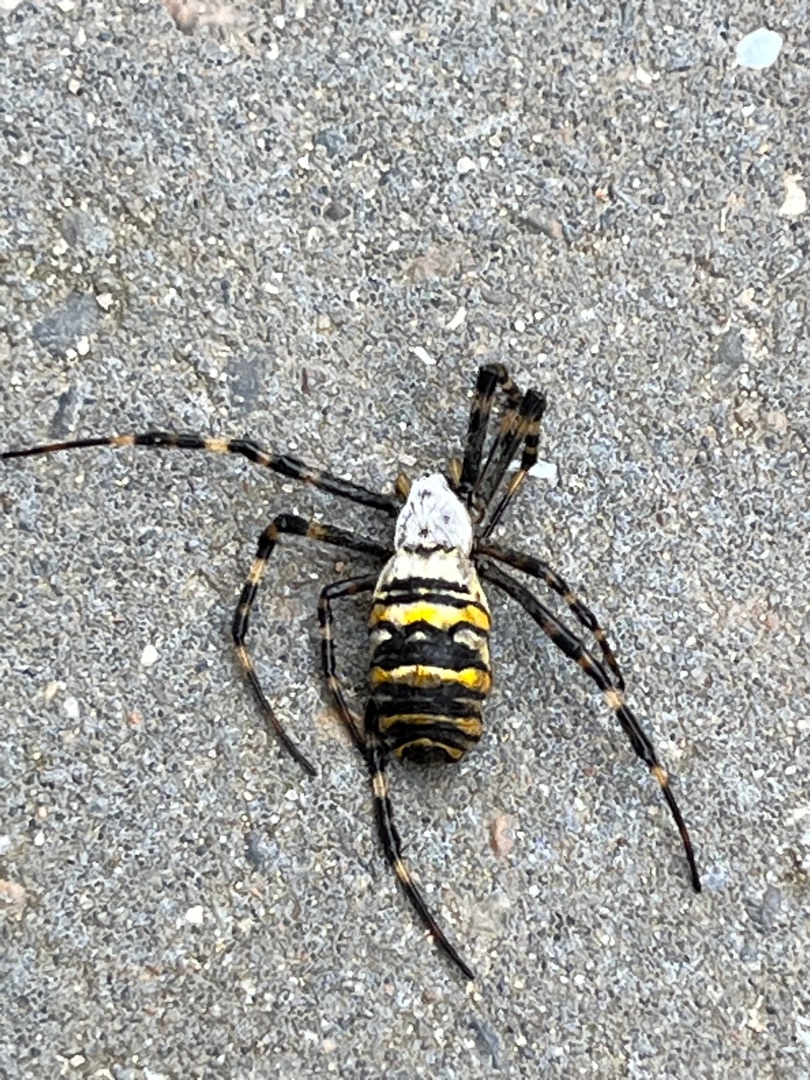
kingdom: Animalia
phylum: Arthropoda
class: Arachnida
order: Araneae
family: Araneidae
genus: Argiope
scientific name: Argiope bruennichi
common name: Hvepseedderkop
